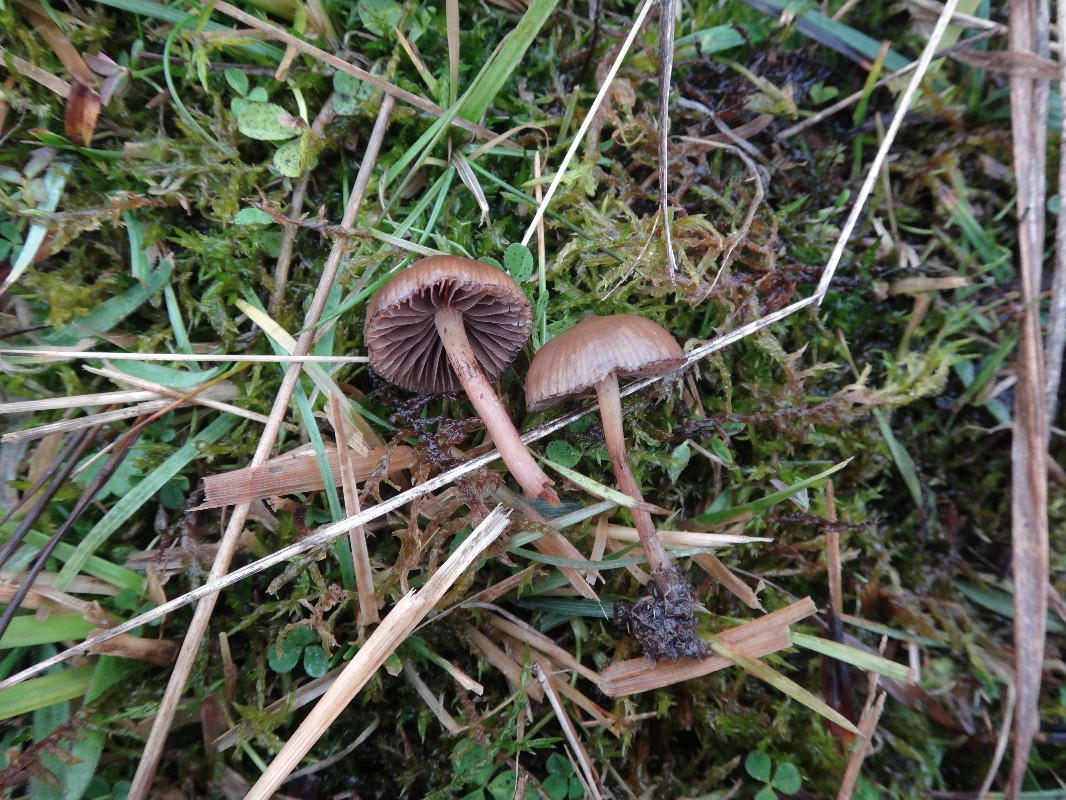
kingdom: Fungi
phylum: Basidiomycota
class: Agaricomycetes
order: Agaricales
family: Hymenogastraceae
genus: Psilocybe
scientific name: Psilocybe fimetaria
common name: prægtig nøgenhat
